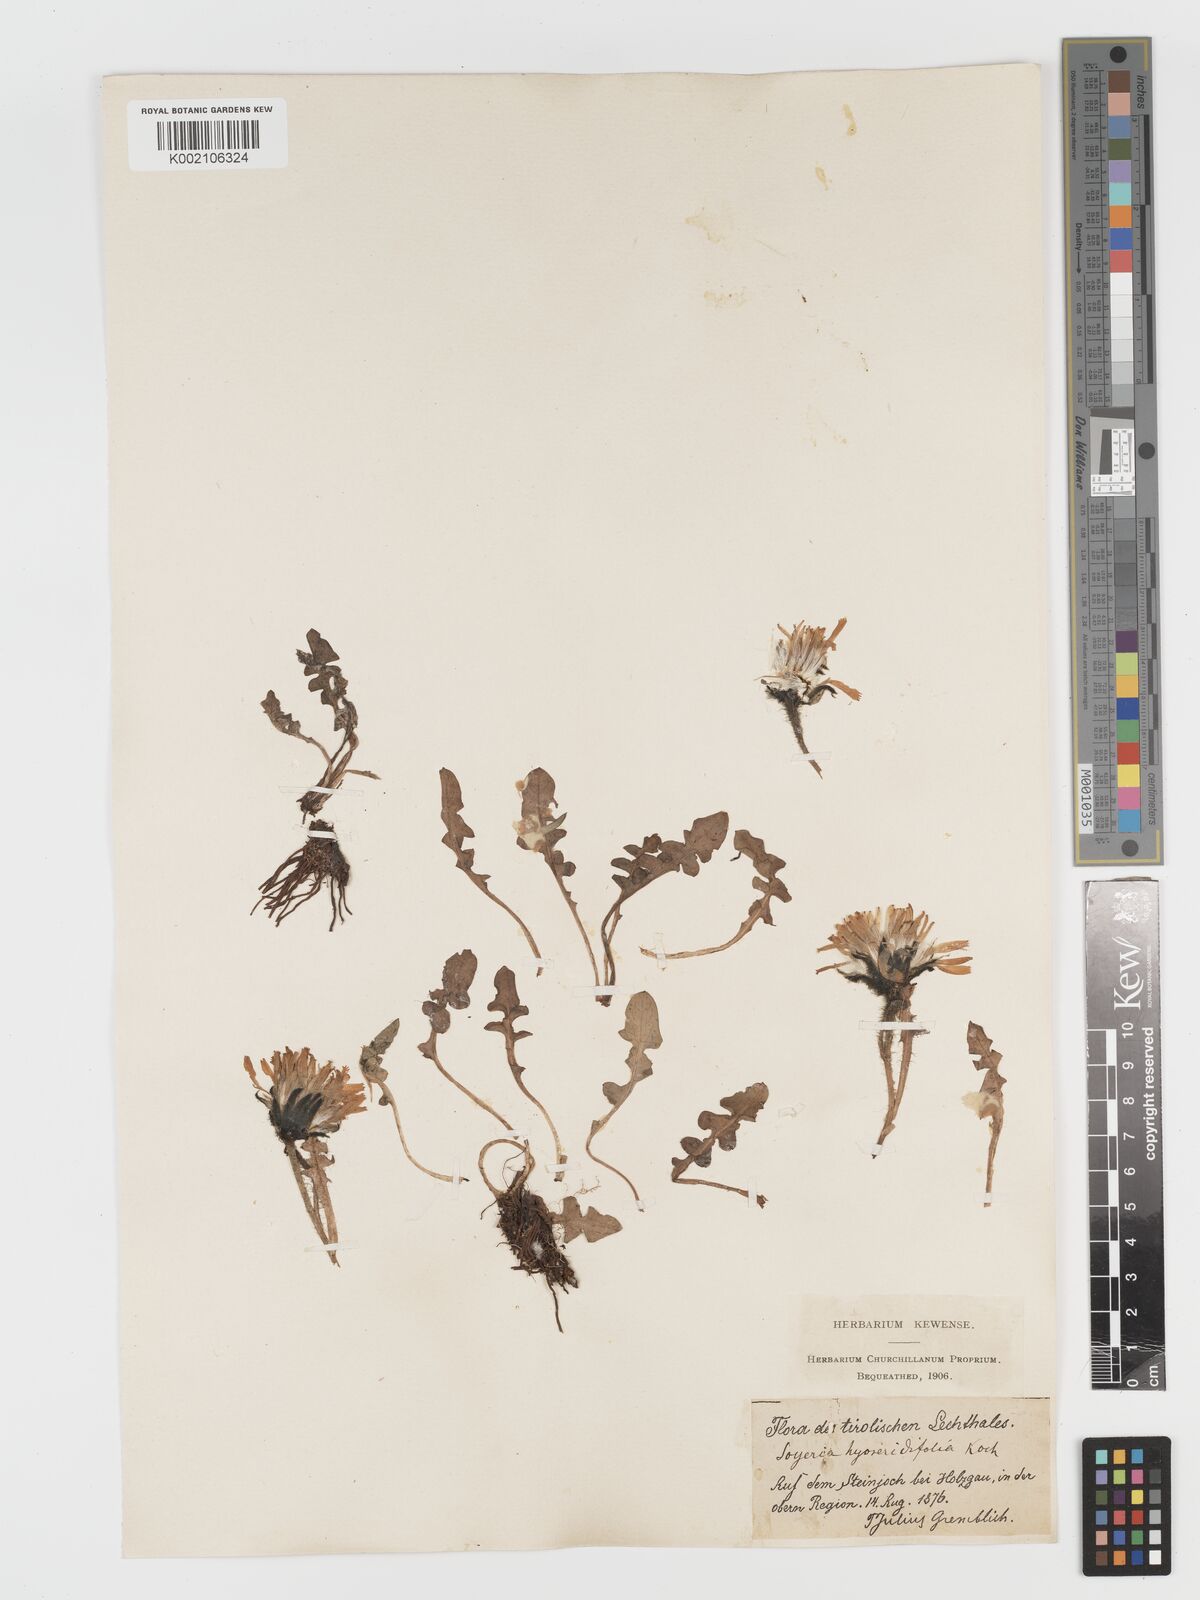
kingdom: Plantae
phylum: Tracheophyta
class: Magnoliopsida
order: Asterales
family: Asteraceae
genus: Crepis
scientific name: Crepis terglouensis
